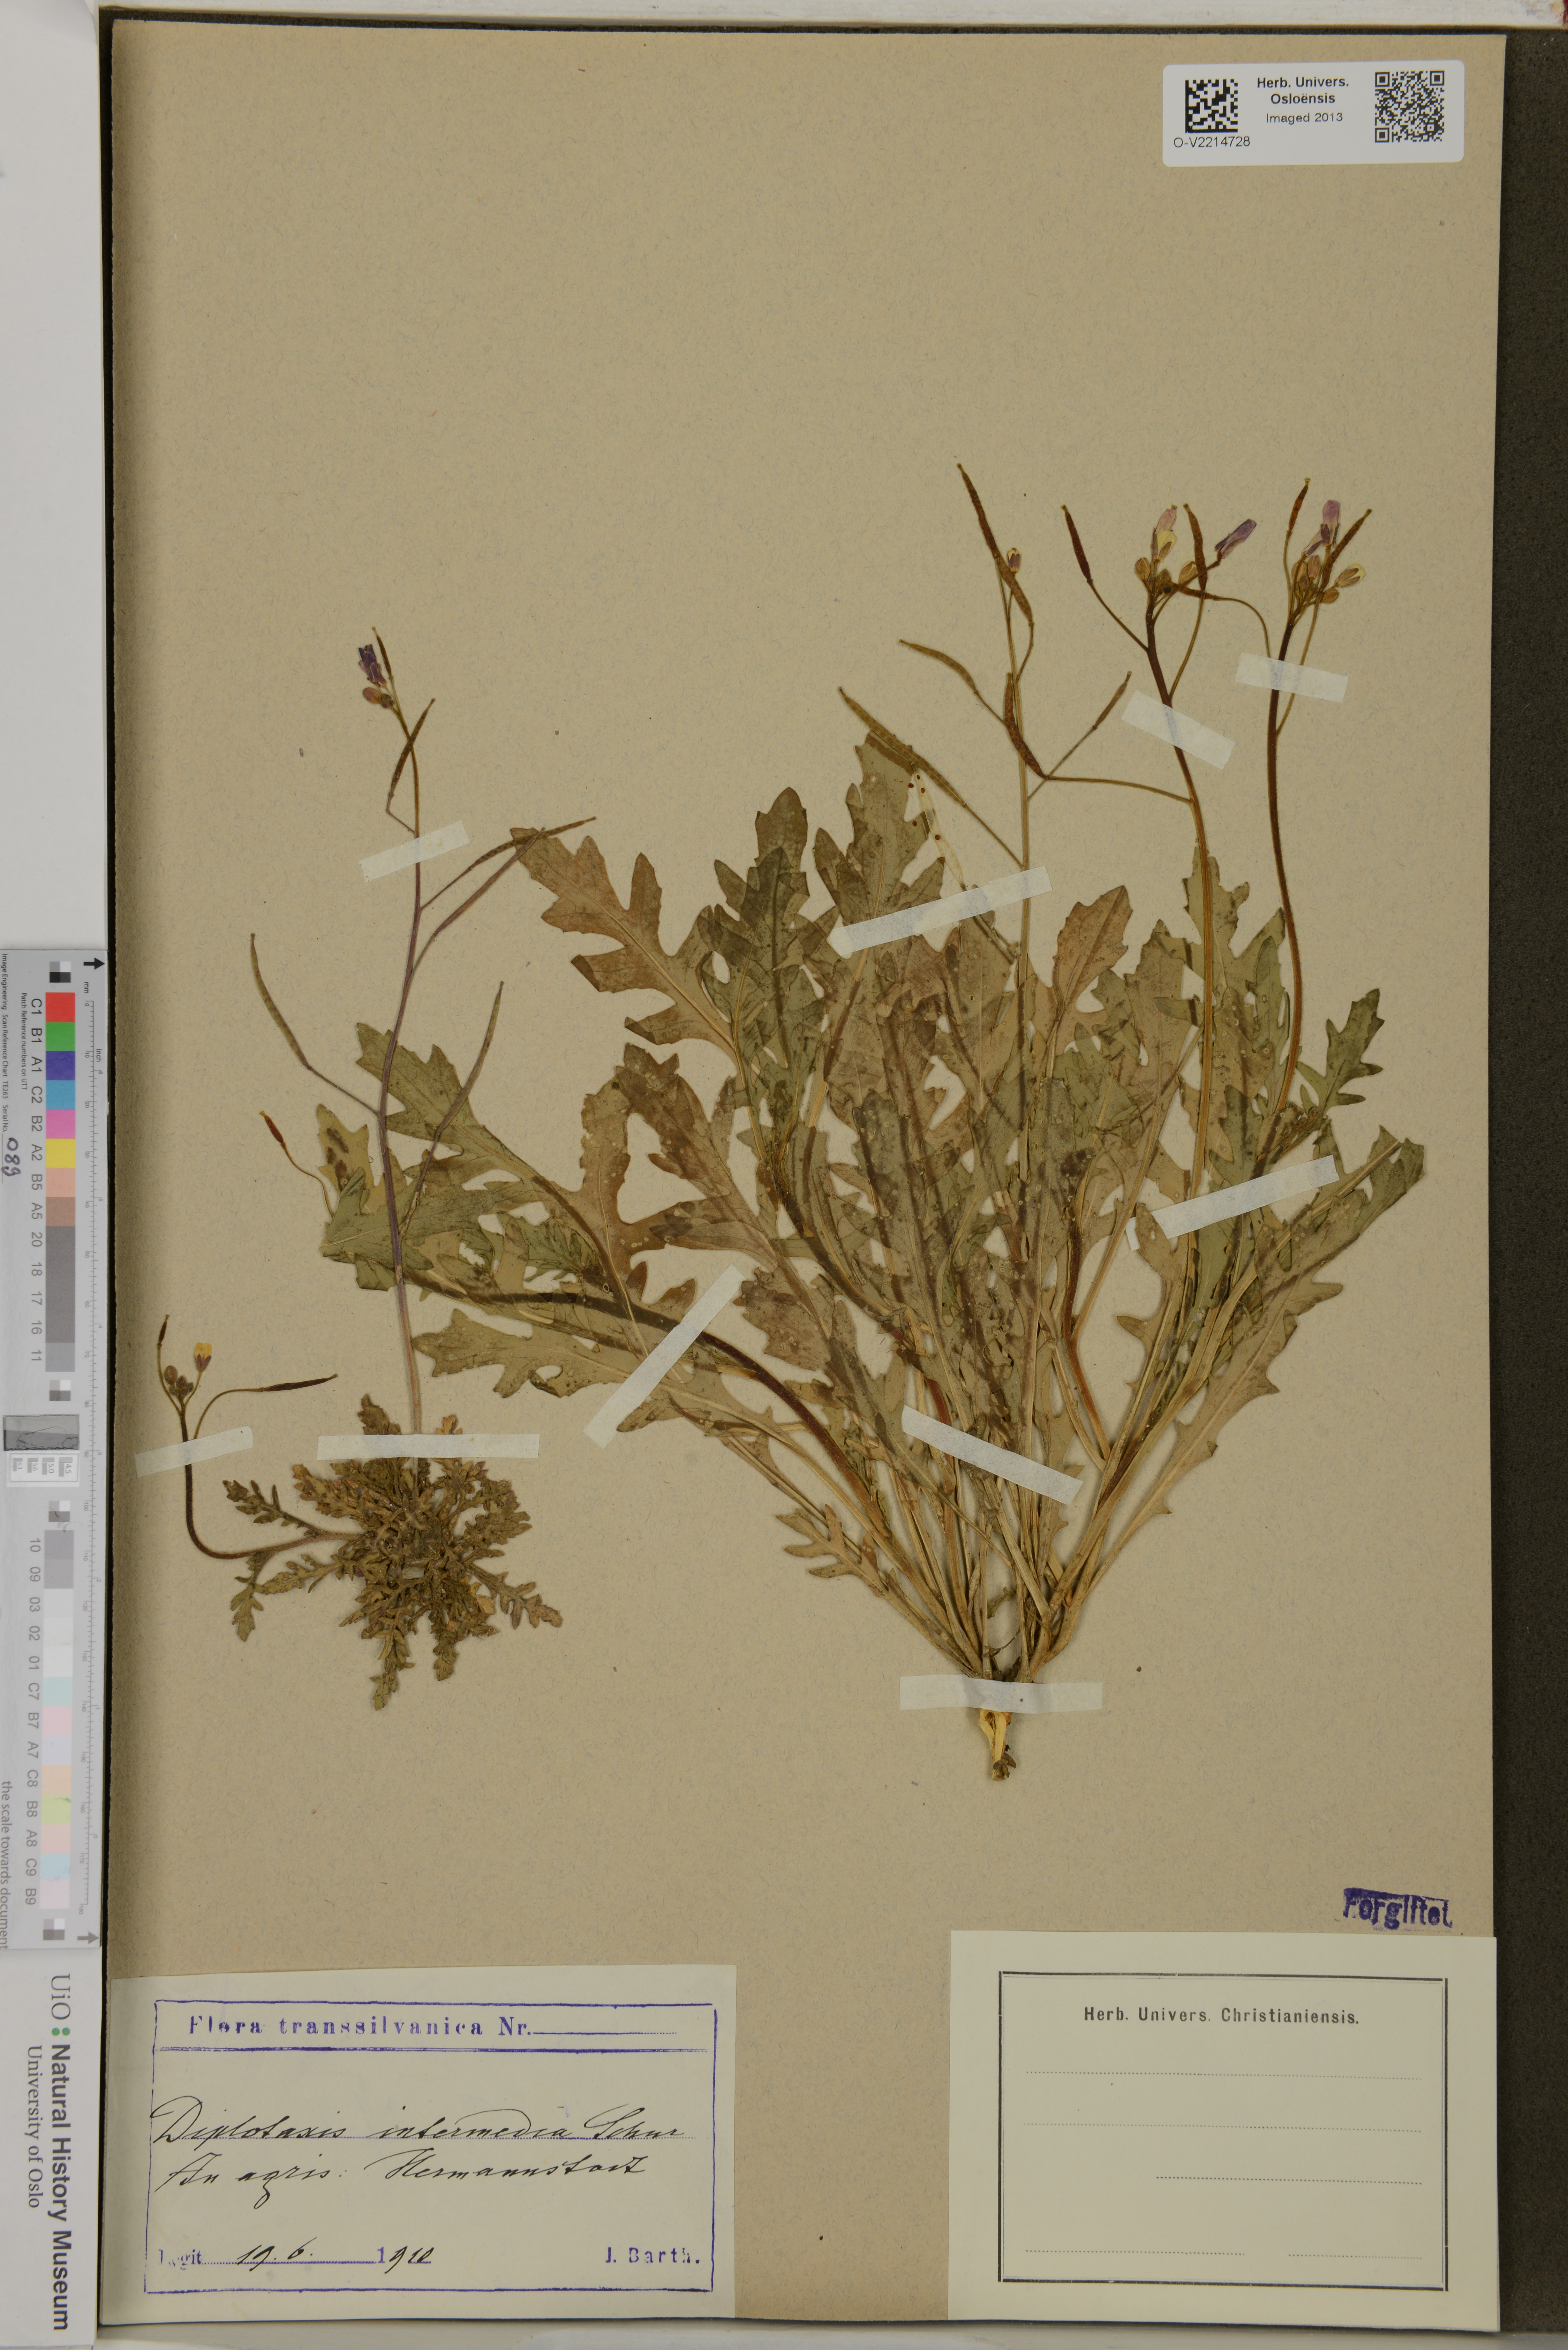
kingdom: Plantae
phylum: Tracheophyta
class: Magnoliopsida
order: Brassicales
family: Brassicaceae
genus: Diplotaxis
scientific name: Diplotaxis muralis
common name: Annual wall-rocket
